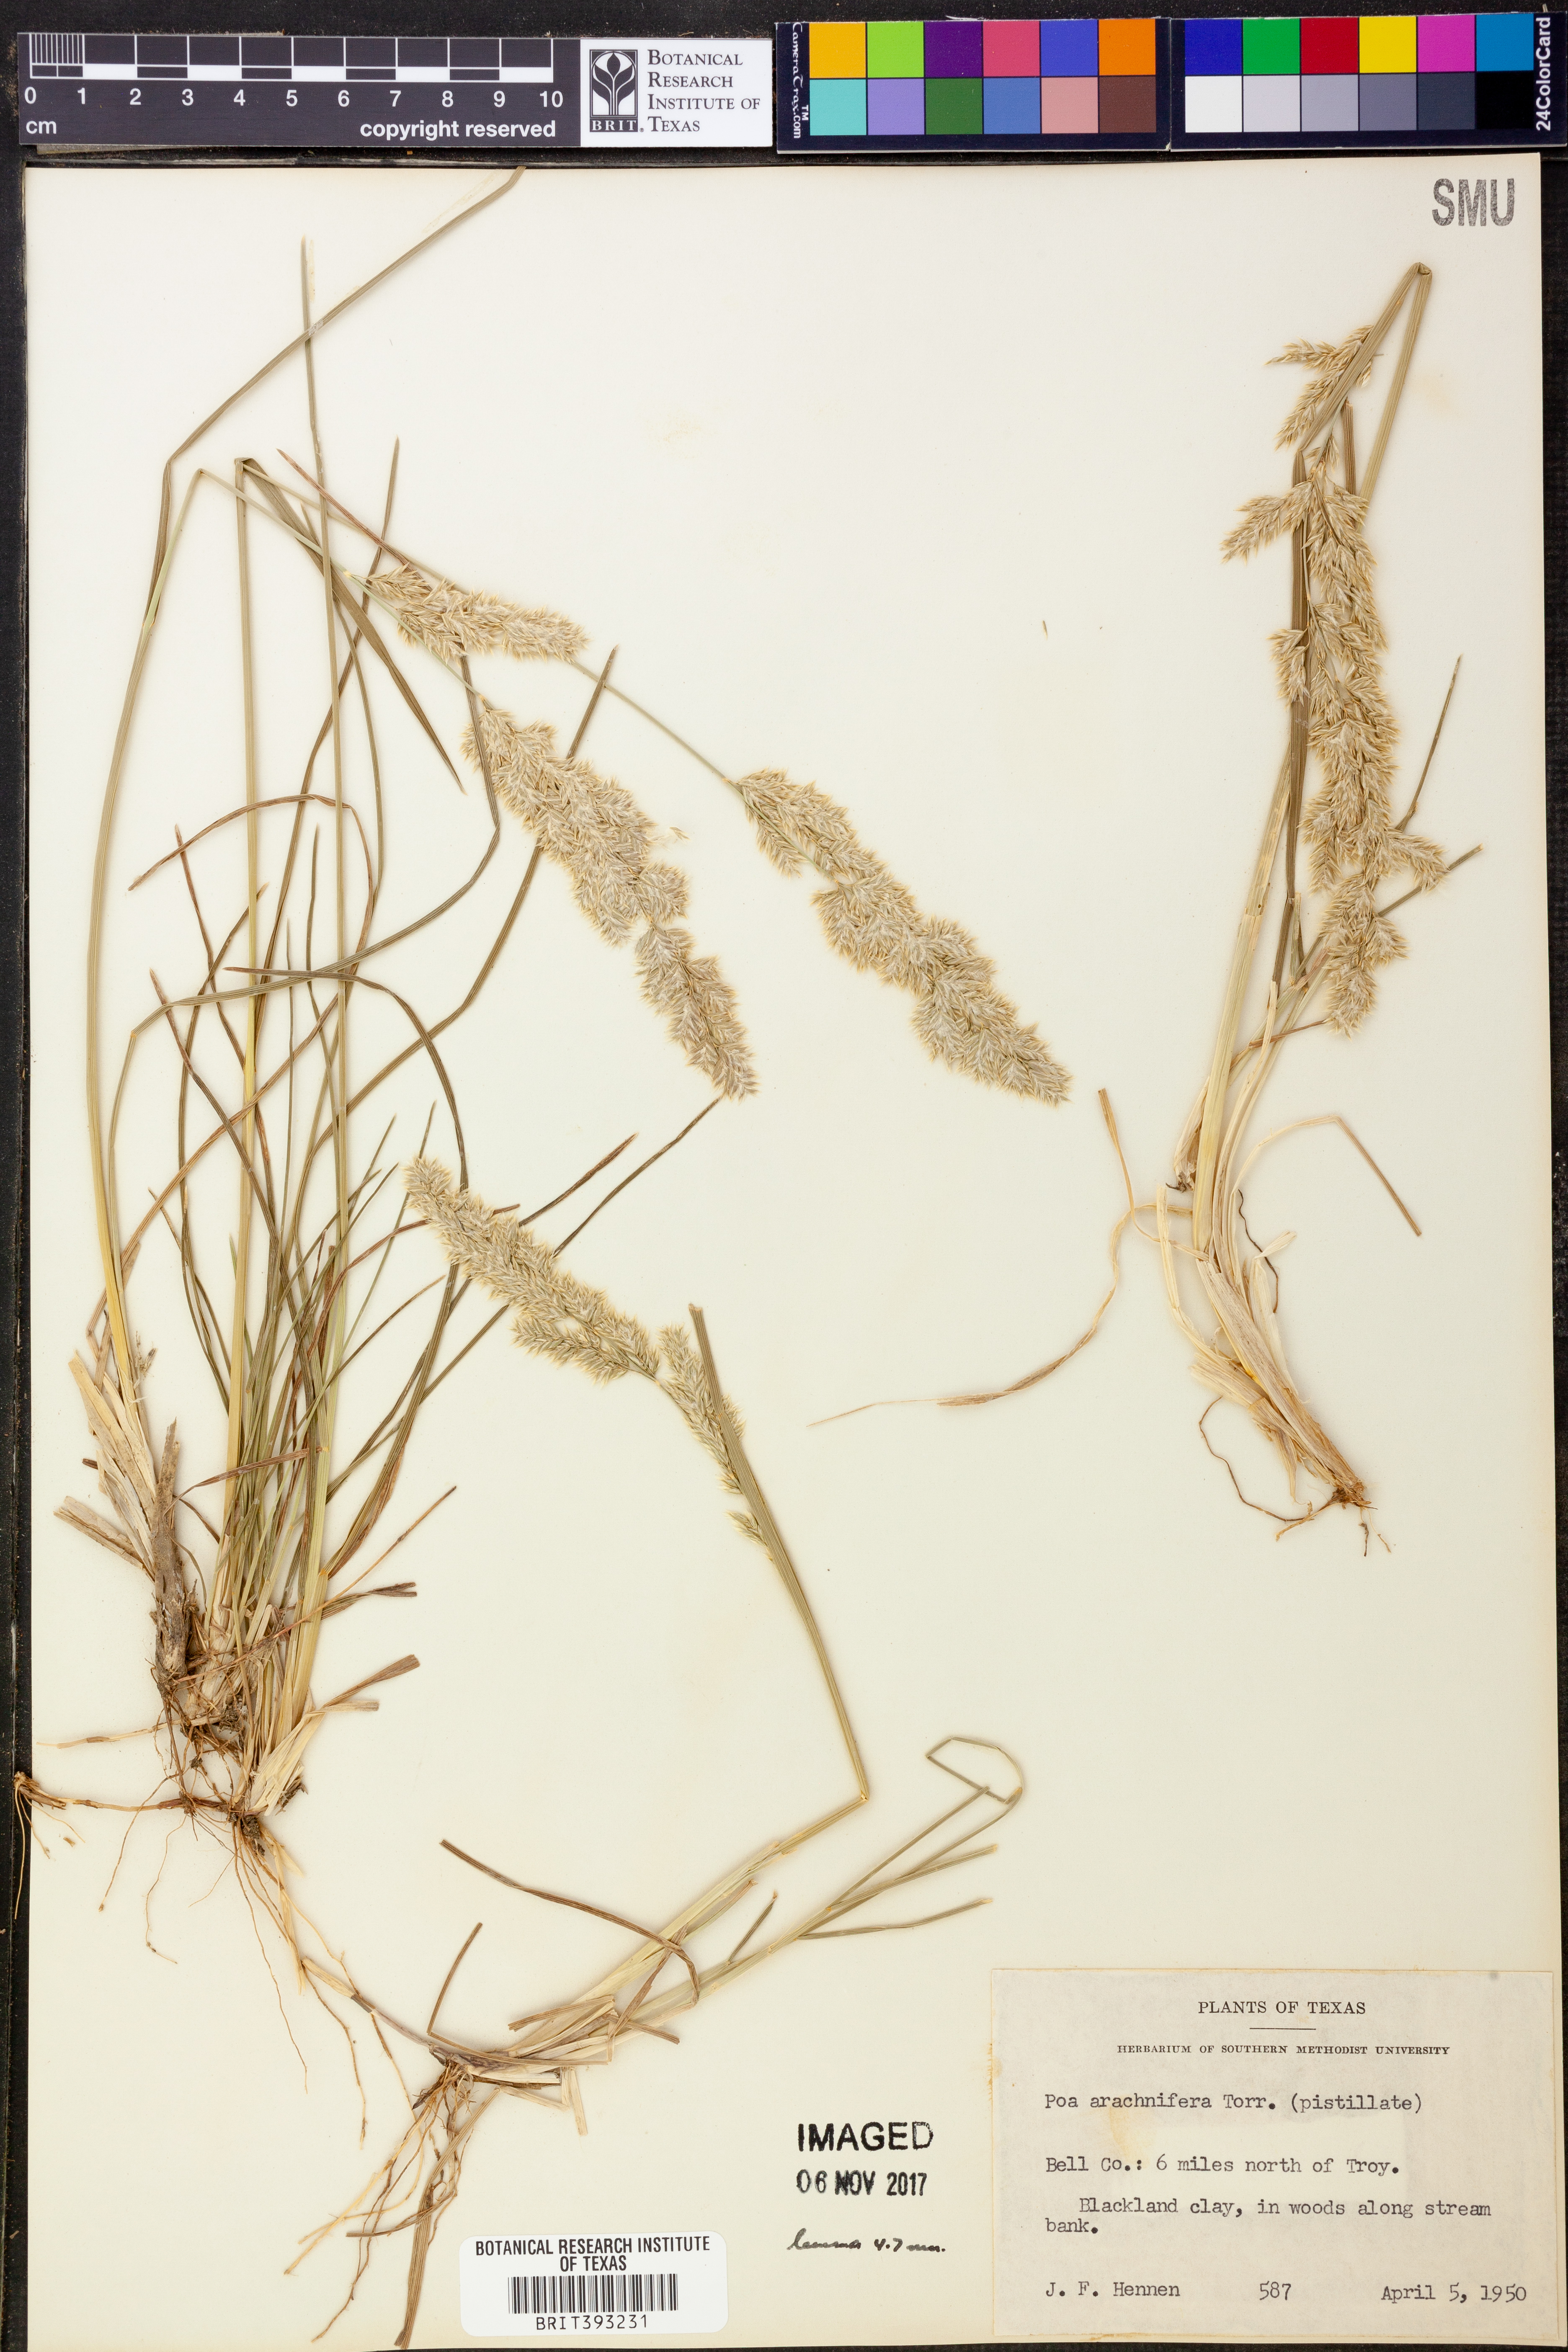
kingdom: Plantae
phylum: Tracheophyta
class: Liliopsida
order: Poales
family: Poaceae
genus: Poa
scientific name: Poa arachnifera
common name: Texas bluegrass
